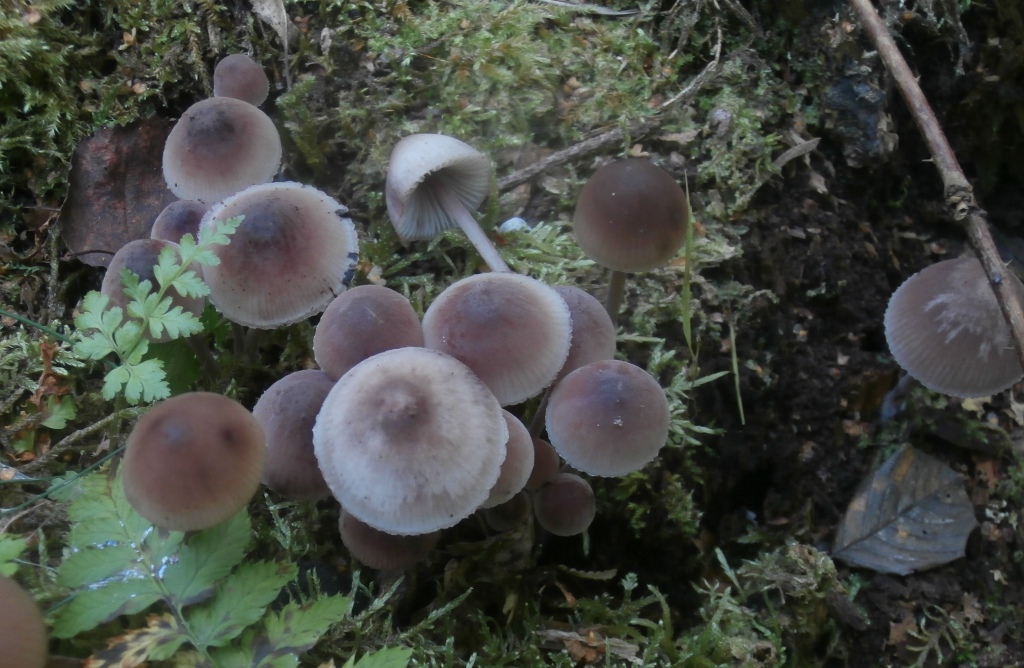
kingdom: Fungi
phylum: Basidiomycota
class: Agaricomycetes
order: Agaricales
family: Mycenaceae
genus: Mycena
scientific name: Mycena haematopus
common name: blødende huesvamp
